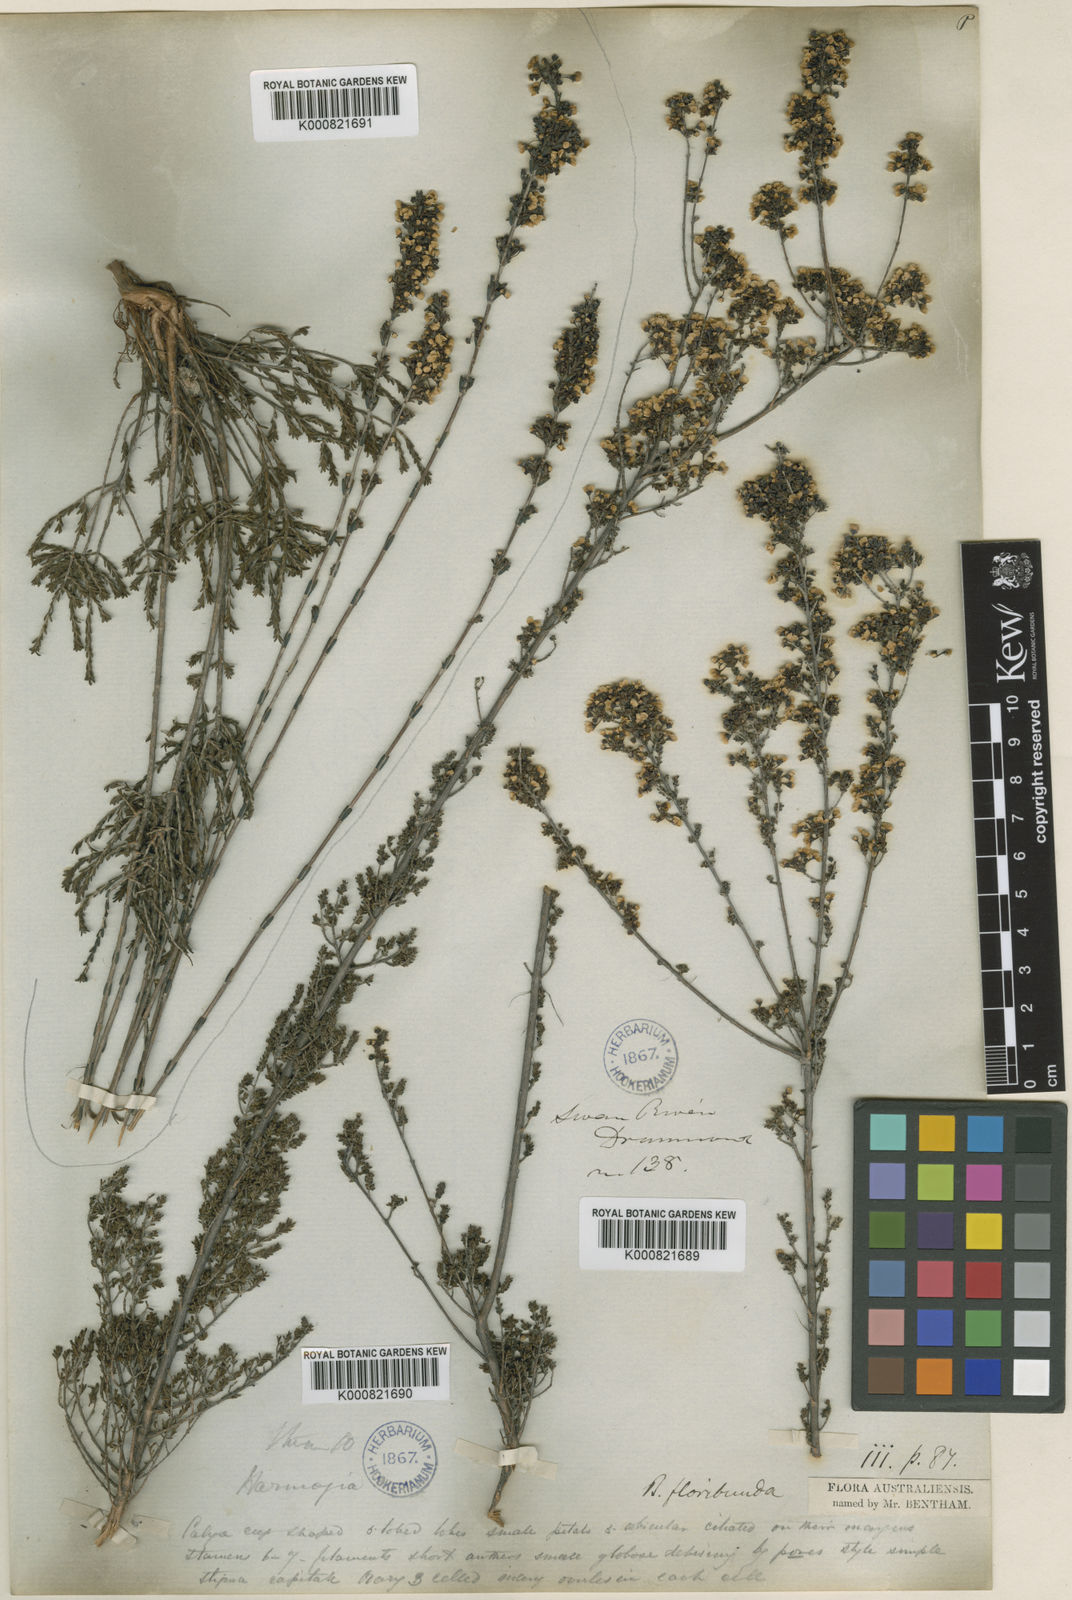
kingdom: Plantae
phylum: Tracheophyta
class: Magnoliopsida
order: Myrtales
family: Myrtaceae
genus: Baeckea
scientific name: Baeckea floribunda
